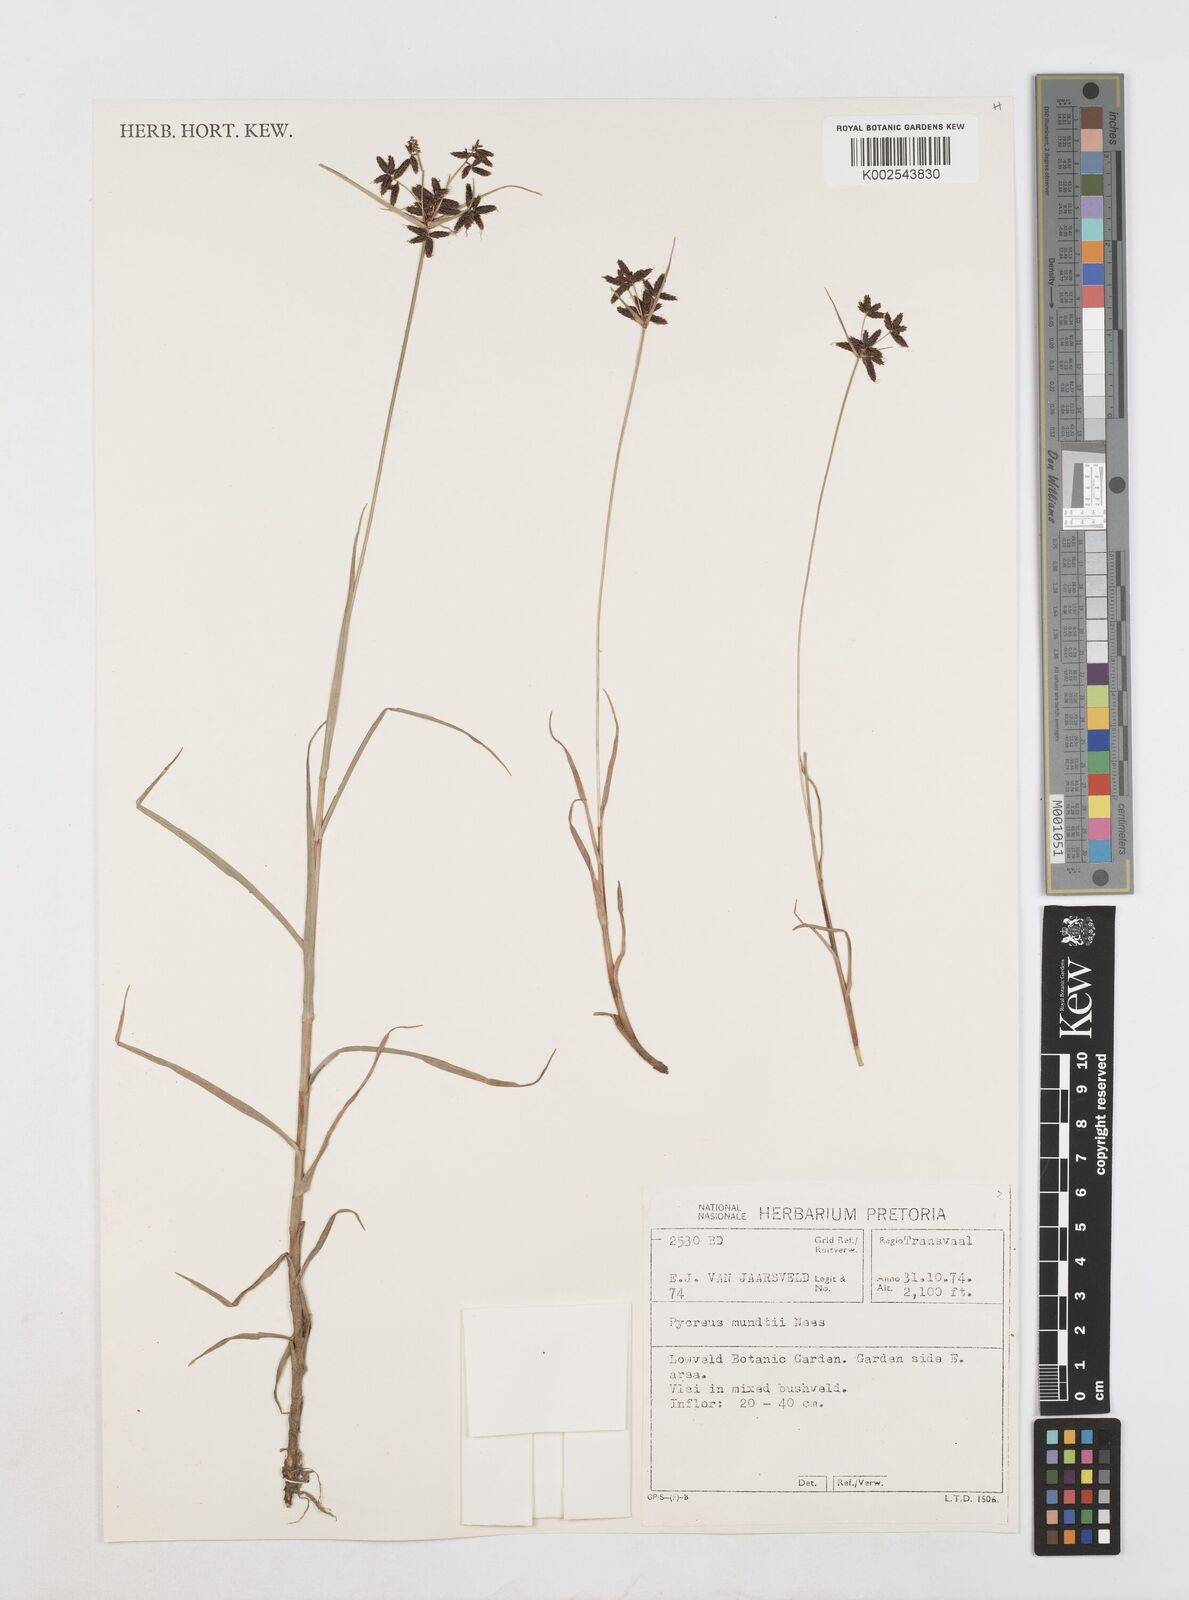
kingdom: Plantae
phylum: Tracheophyta
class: Liliopsida
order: Poales
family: Cyperaceae
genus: Cyperus
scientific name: Cyperus mundii
